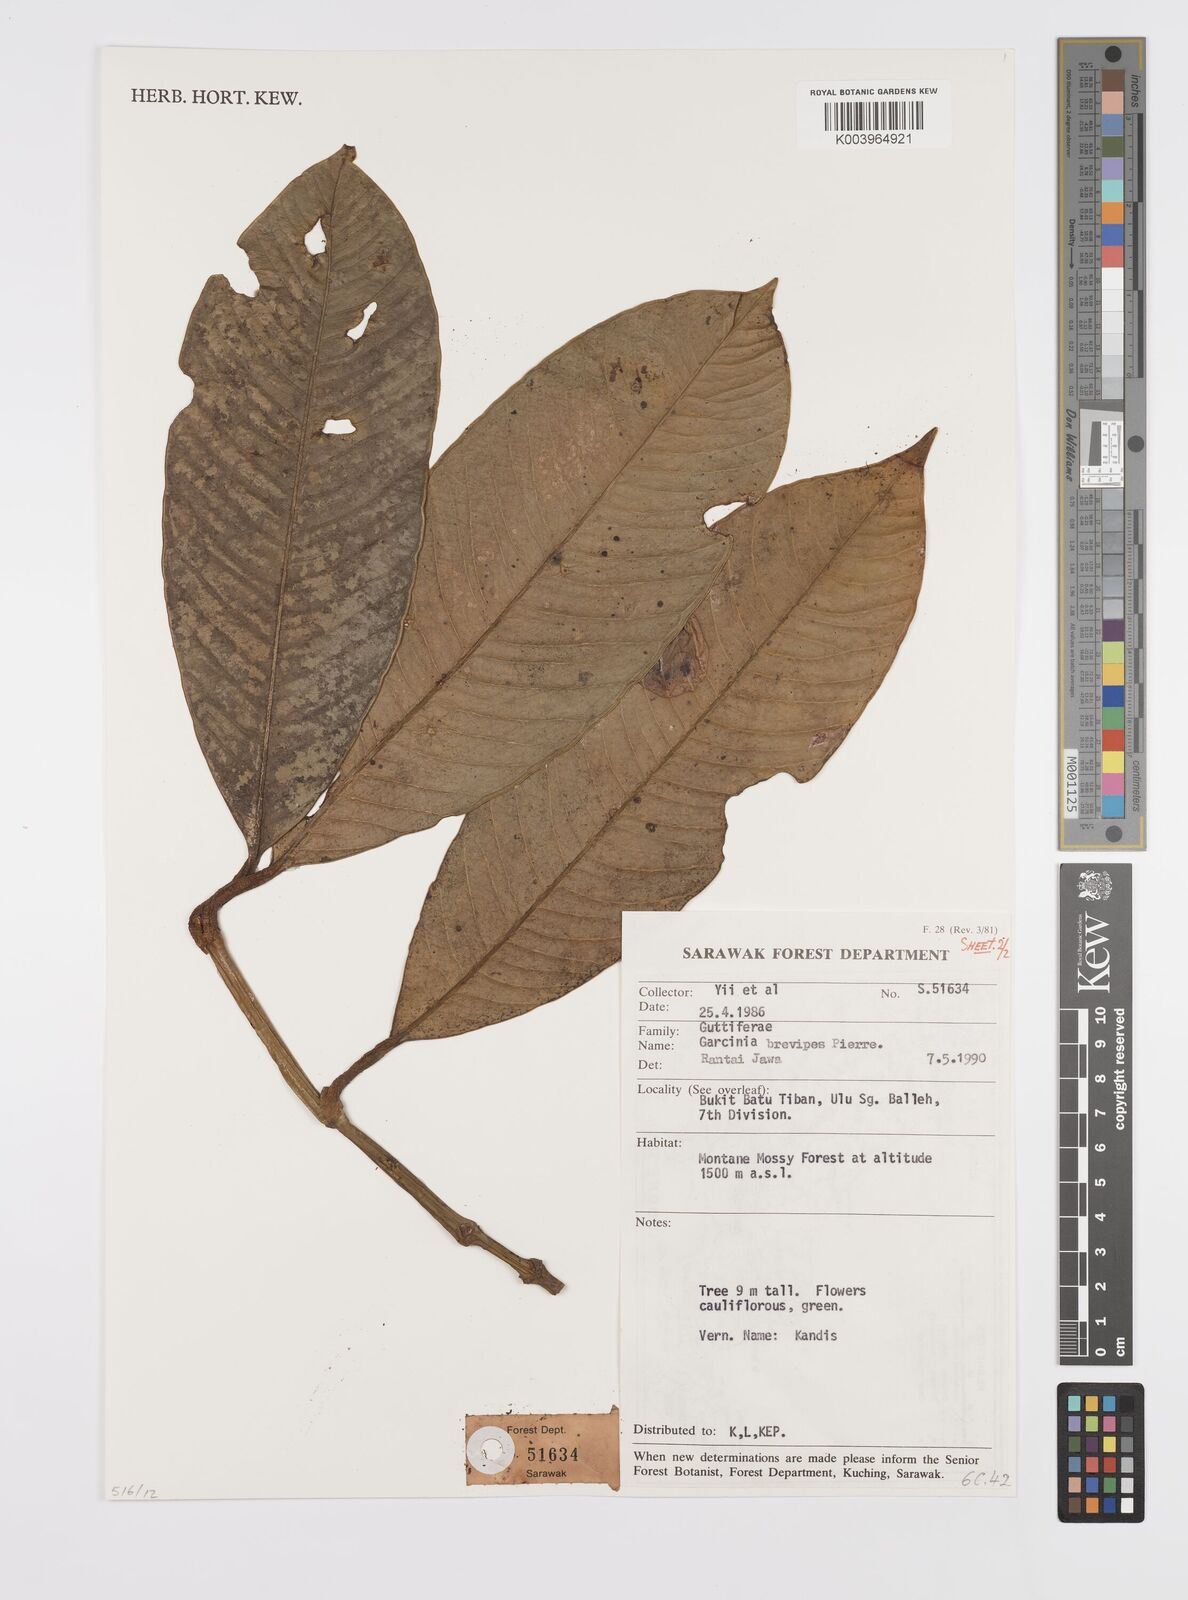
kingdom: Plantae
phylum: Tracheophyta
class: Magnoliopsida
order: Malpighiales
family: Clusiaceae
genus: Garcinia
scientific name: Garcinia brevipes
